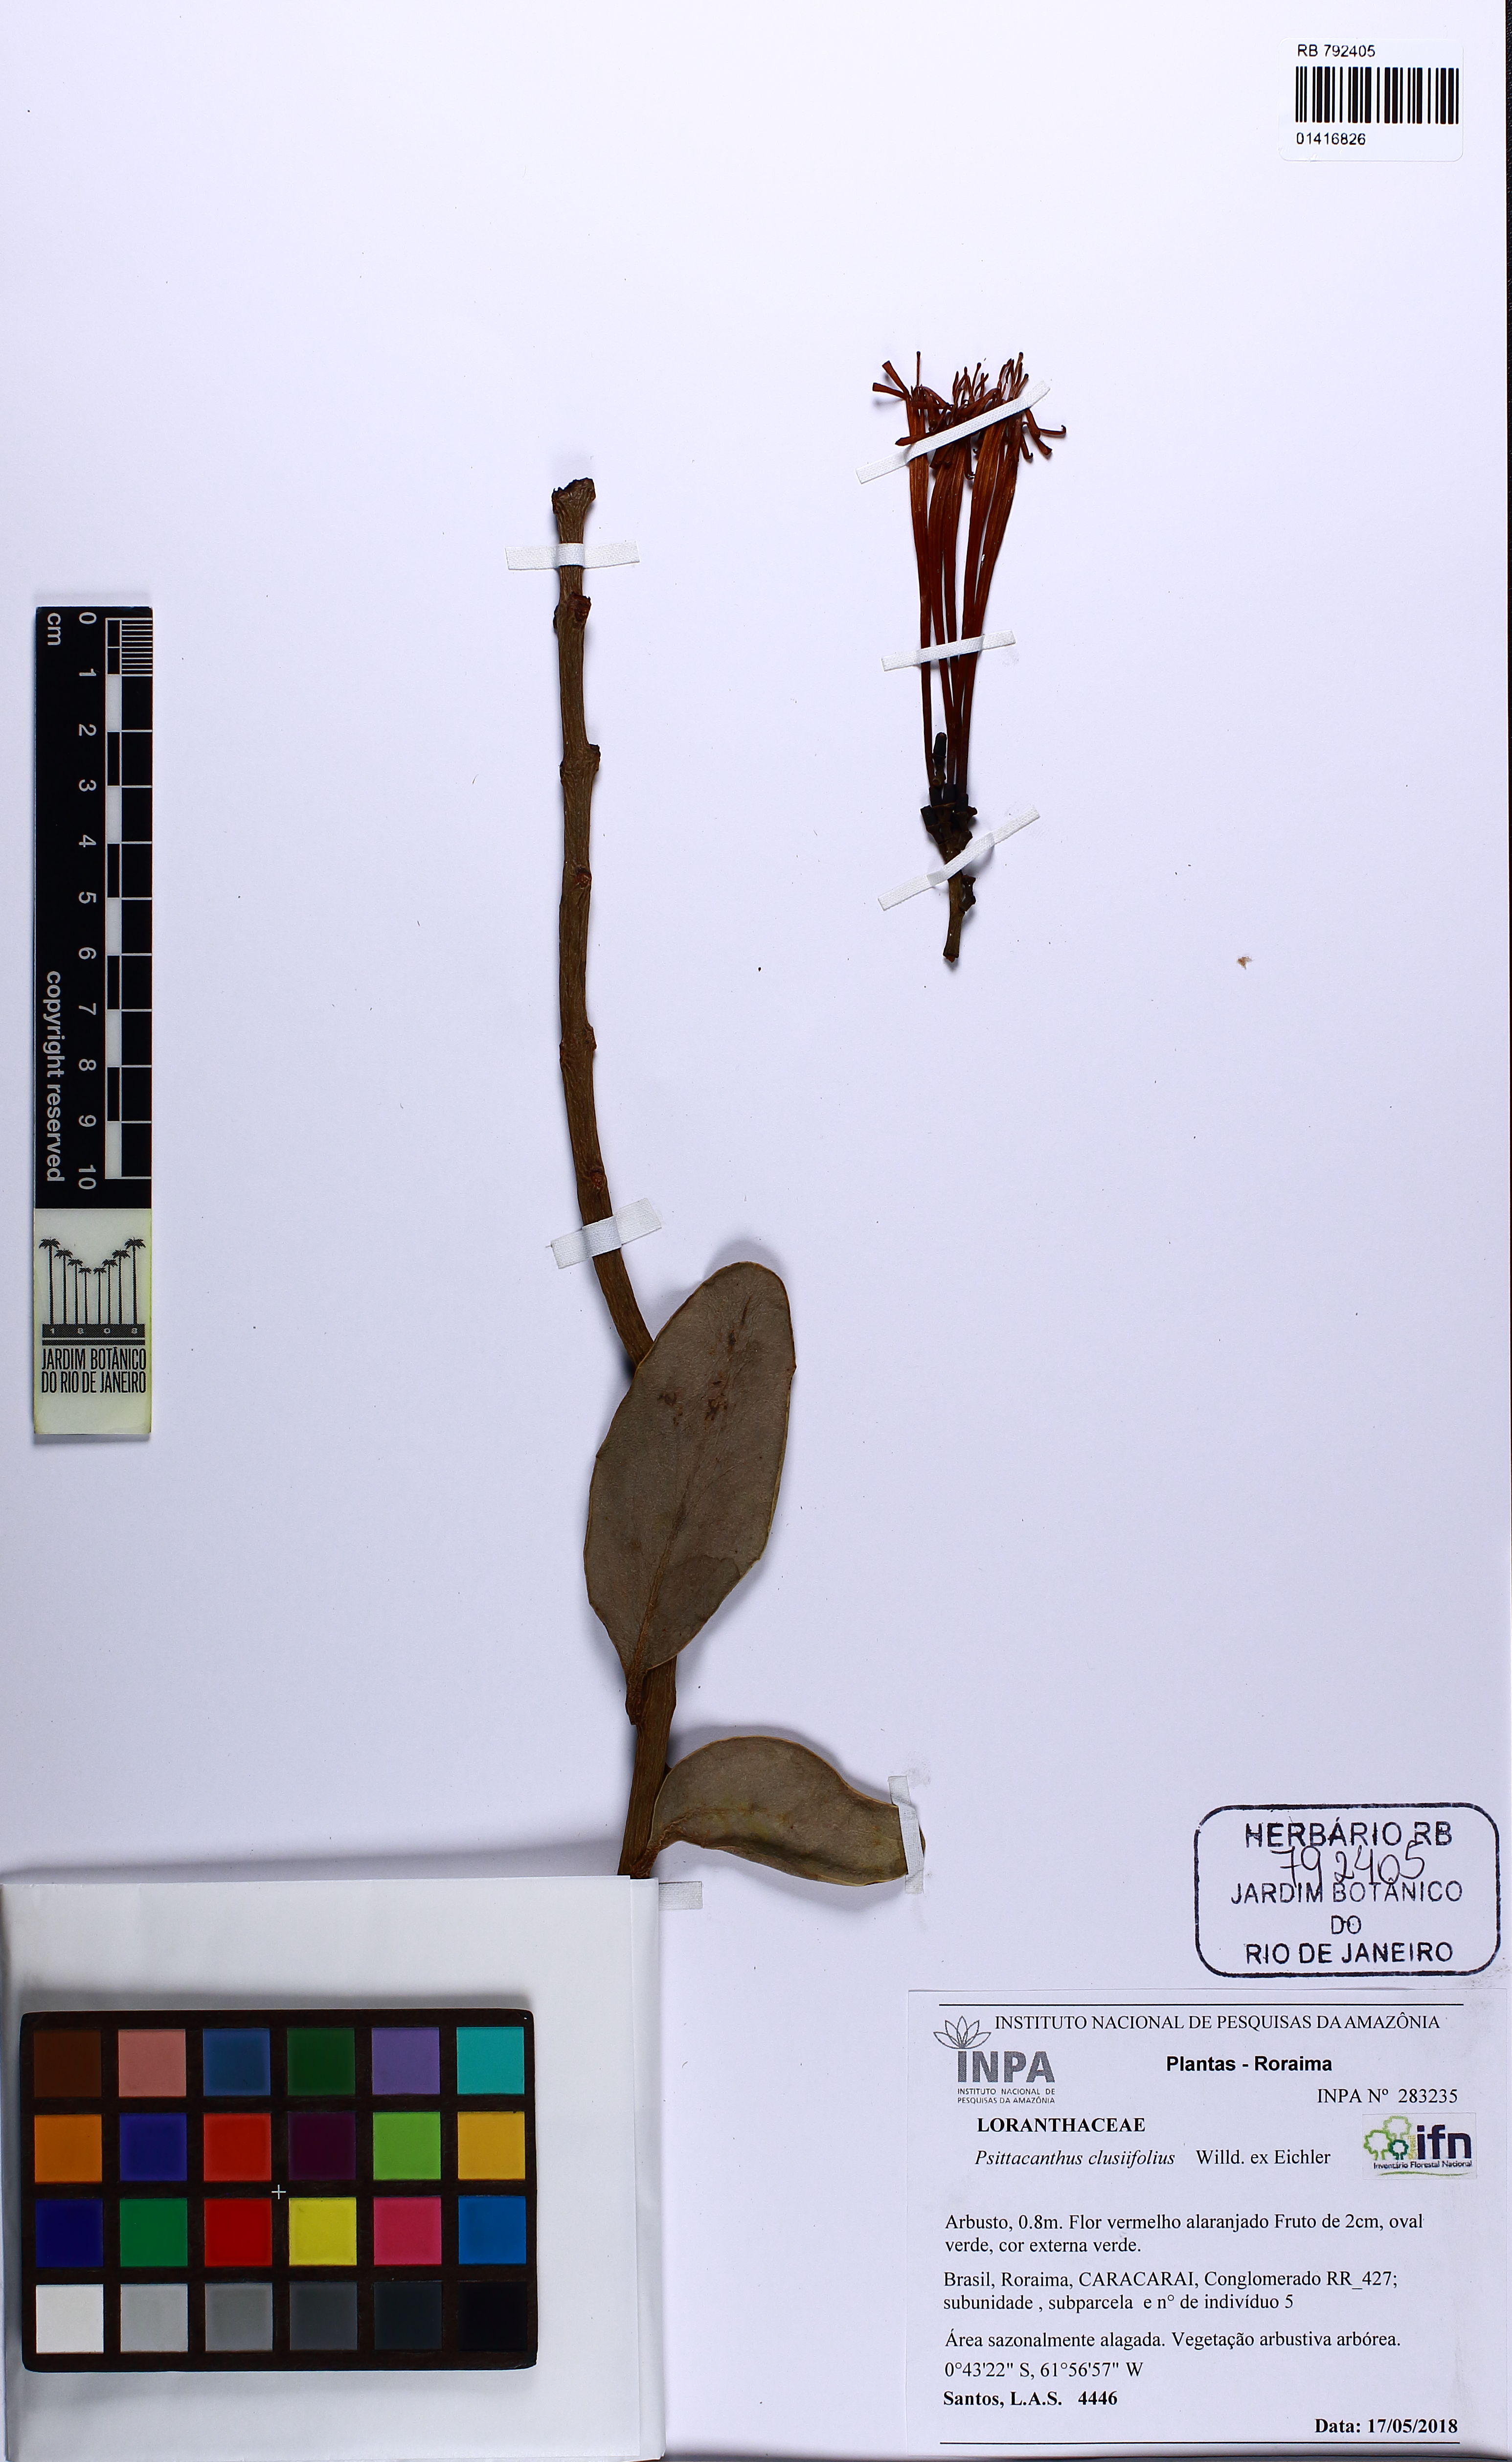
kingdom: Plantae
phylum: Tracheophyta
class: Magnoliopsida
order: Santalales
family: Loranthaceae
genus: Psittacanthus
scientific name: Psittacanthus clusiifolius
